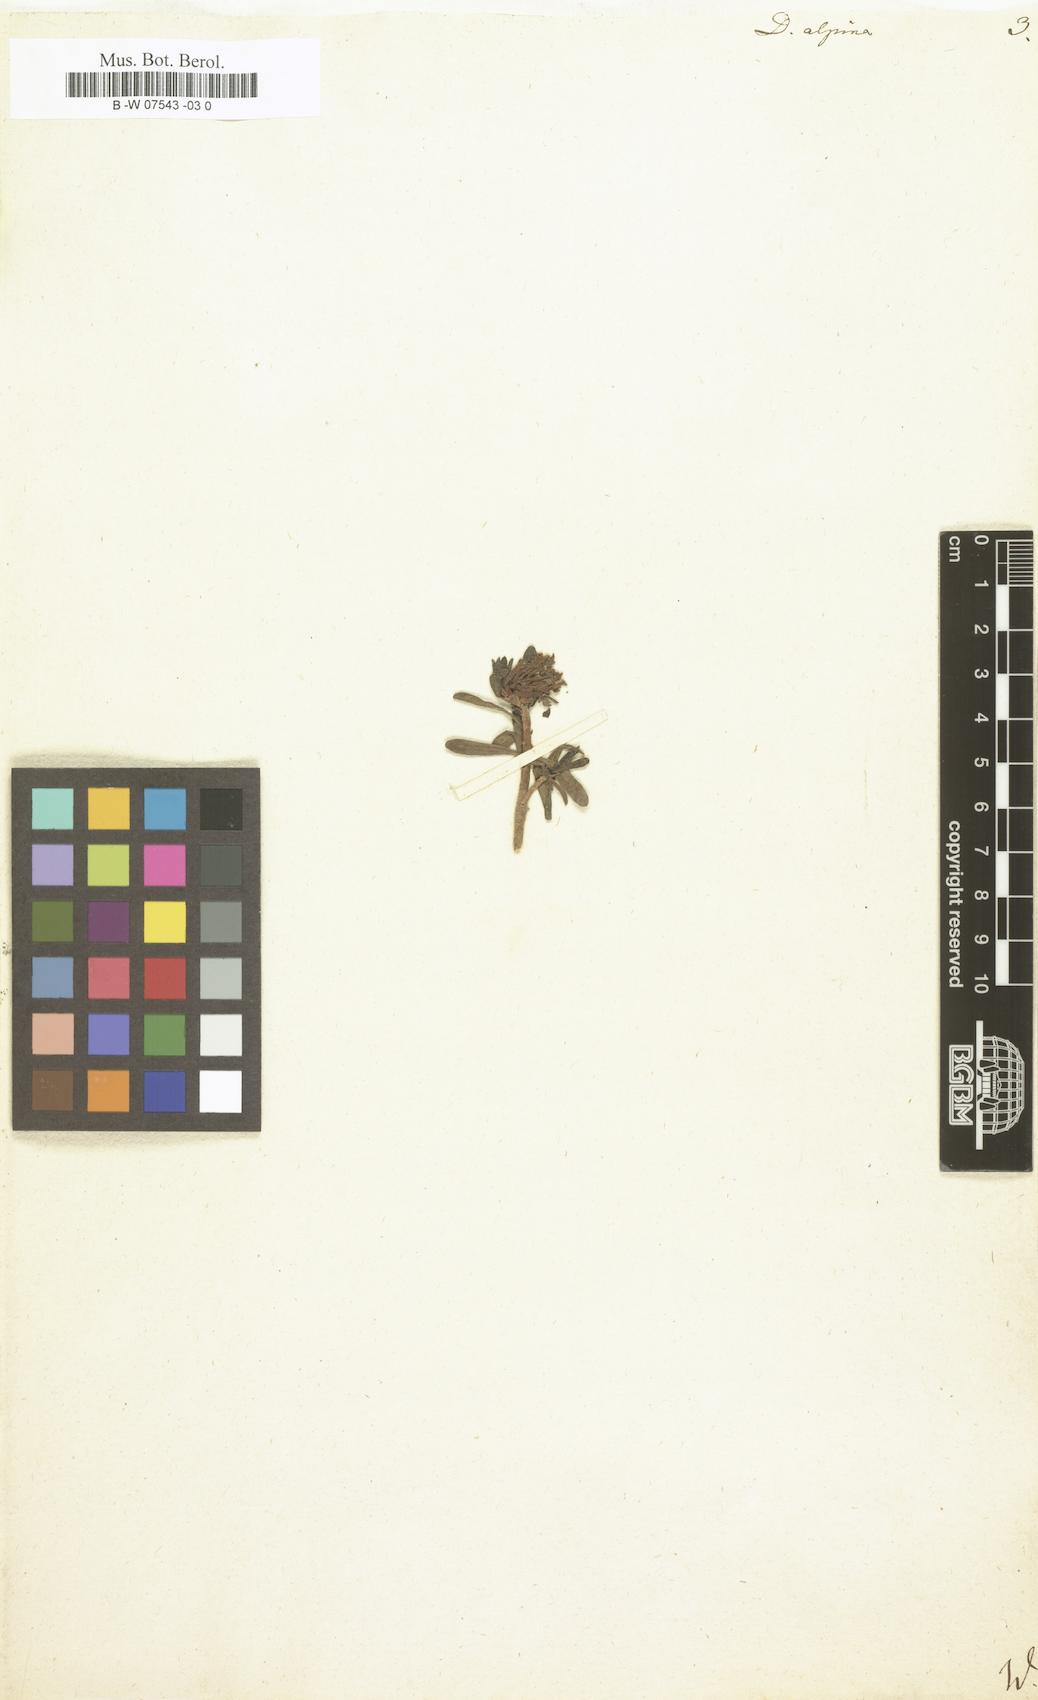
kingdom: Plantae
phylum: Tracheophyta
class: Magnoliopsida
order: Malvales
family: Thymelaeaceae
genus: Daphne
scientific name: Daphne alpina
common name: Alpine daphne
